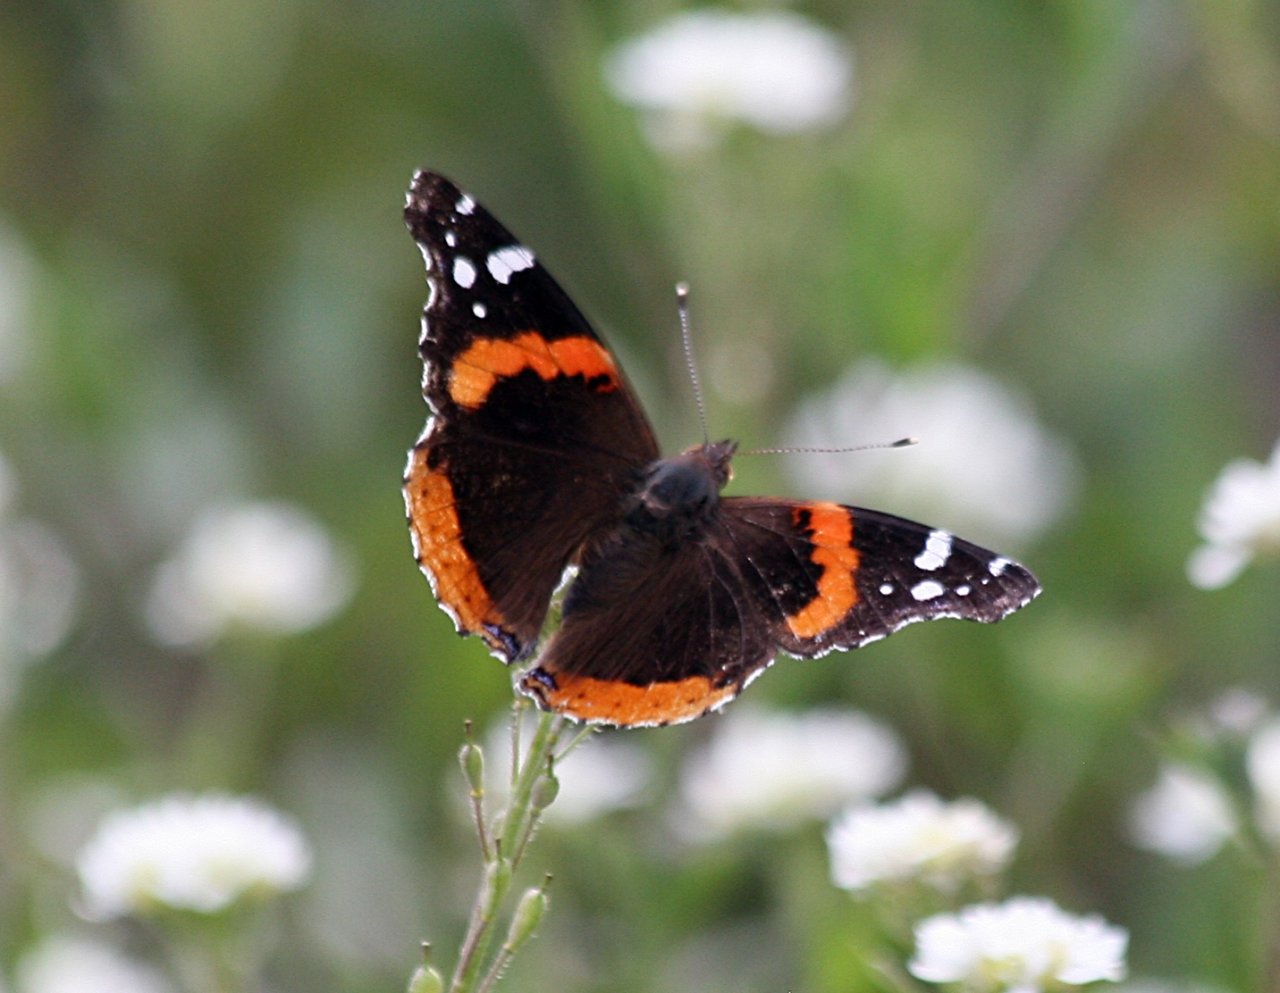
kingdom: Animalia
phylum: Arthropoda
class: Insecta
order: Lepidoptera
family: Nymphalidae
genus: Vanessa
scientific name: Vanessa atalanta
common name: Red Admiral
